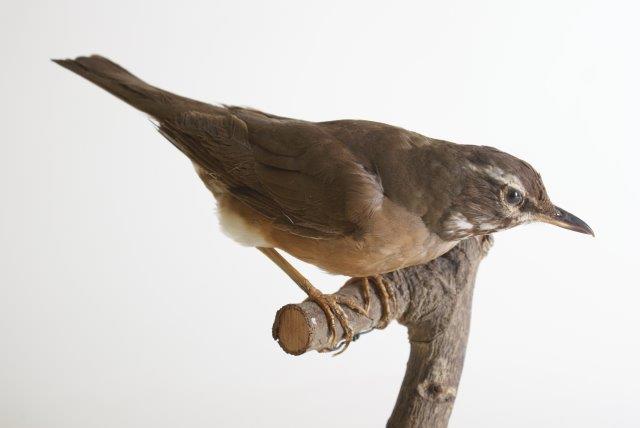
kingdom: Animalia
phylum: Chordata
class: Aves
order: Passeriformes
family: Turdidae
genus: Turdus
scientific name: Turdus obscurus
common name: Vale lijster
